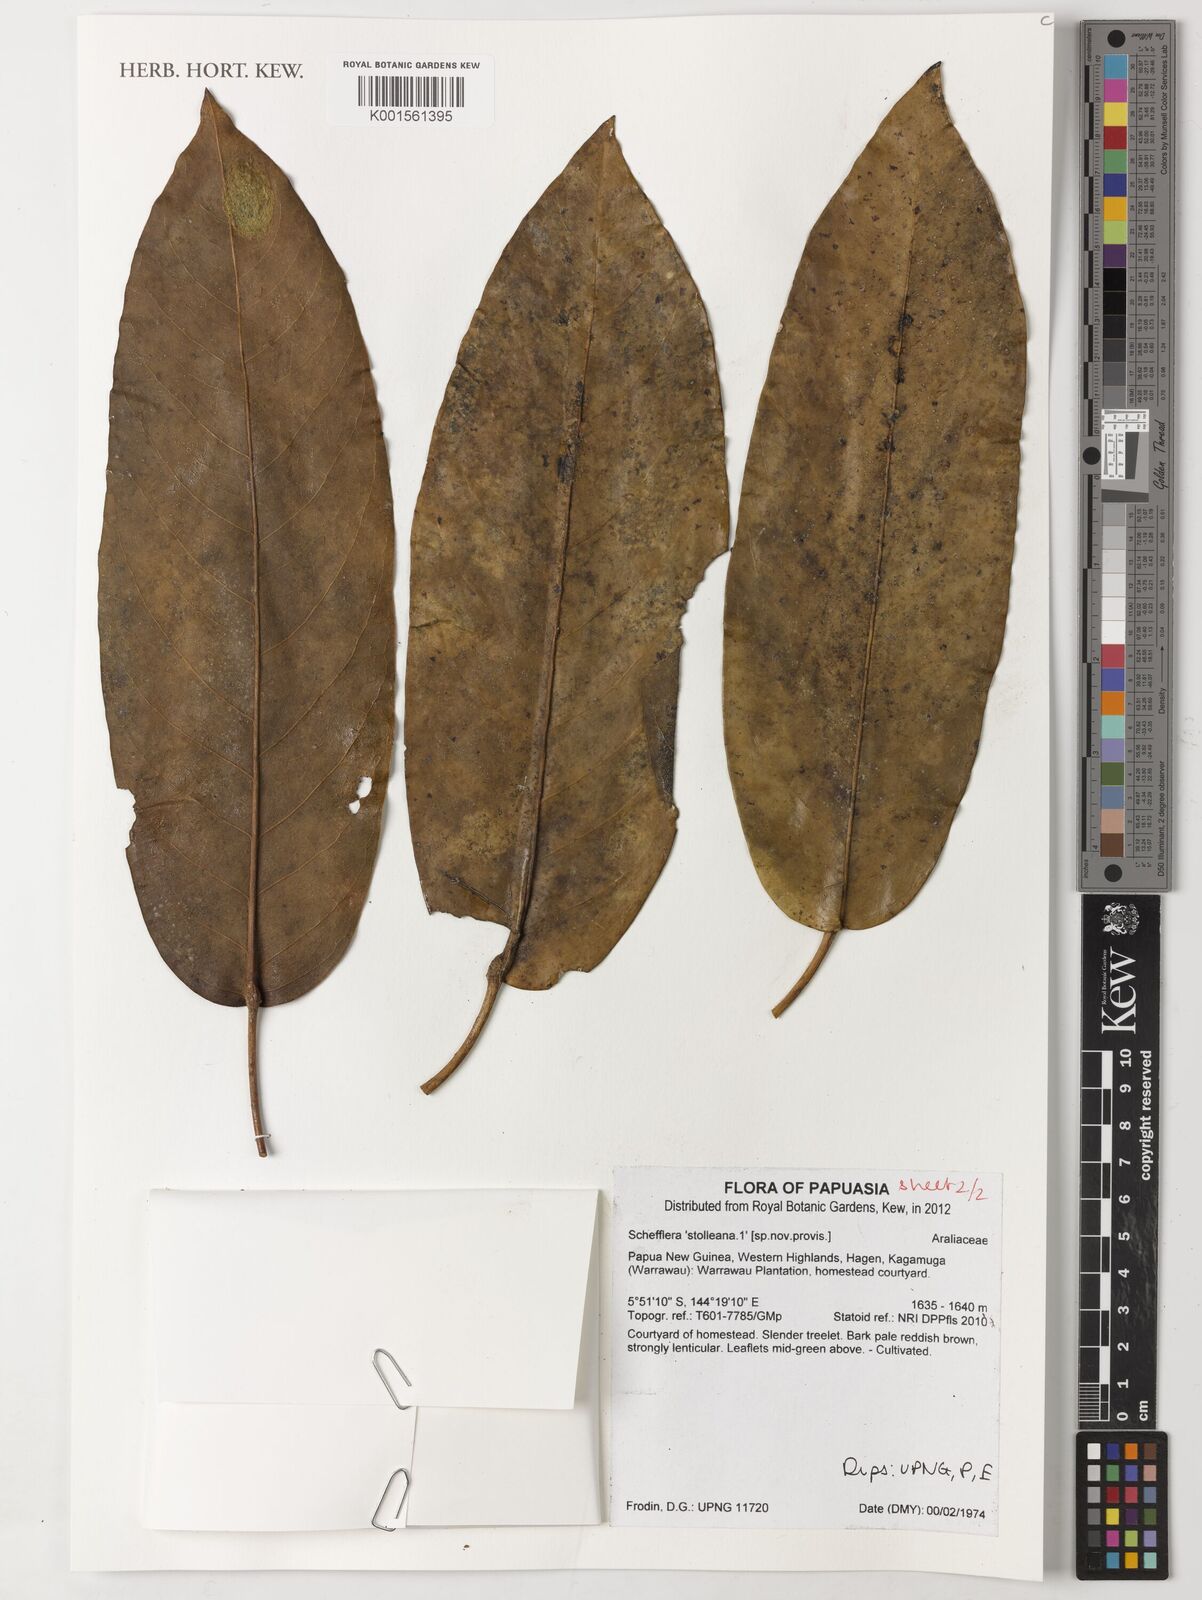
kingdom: Plantae
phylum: Tracheophyta
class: Magnoliopsida
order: Apiales
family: Araliaceae
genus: Schefflera
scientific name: Schefflera
